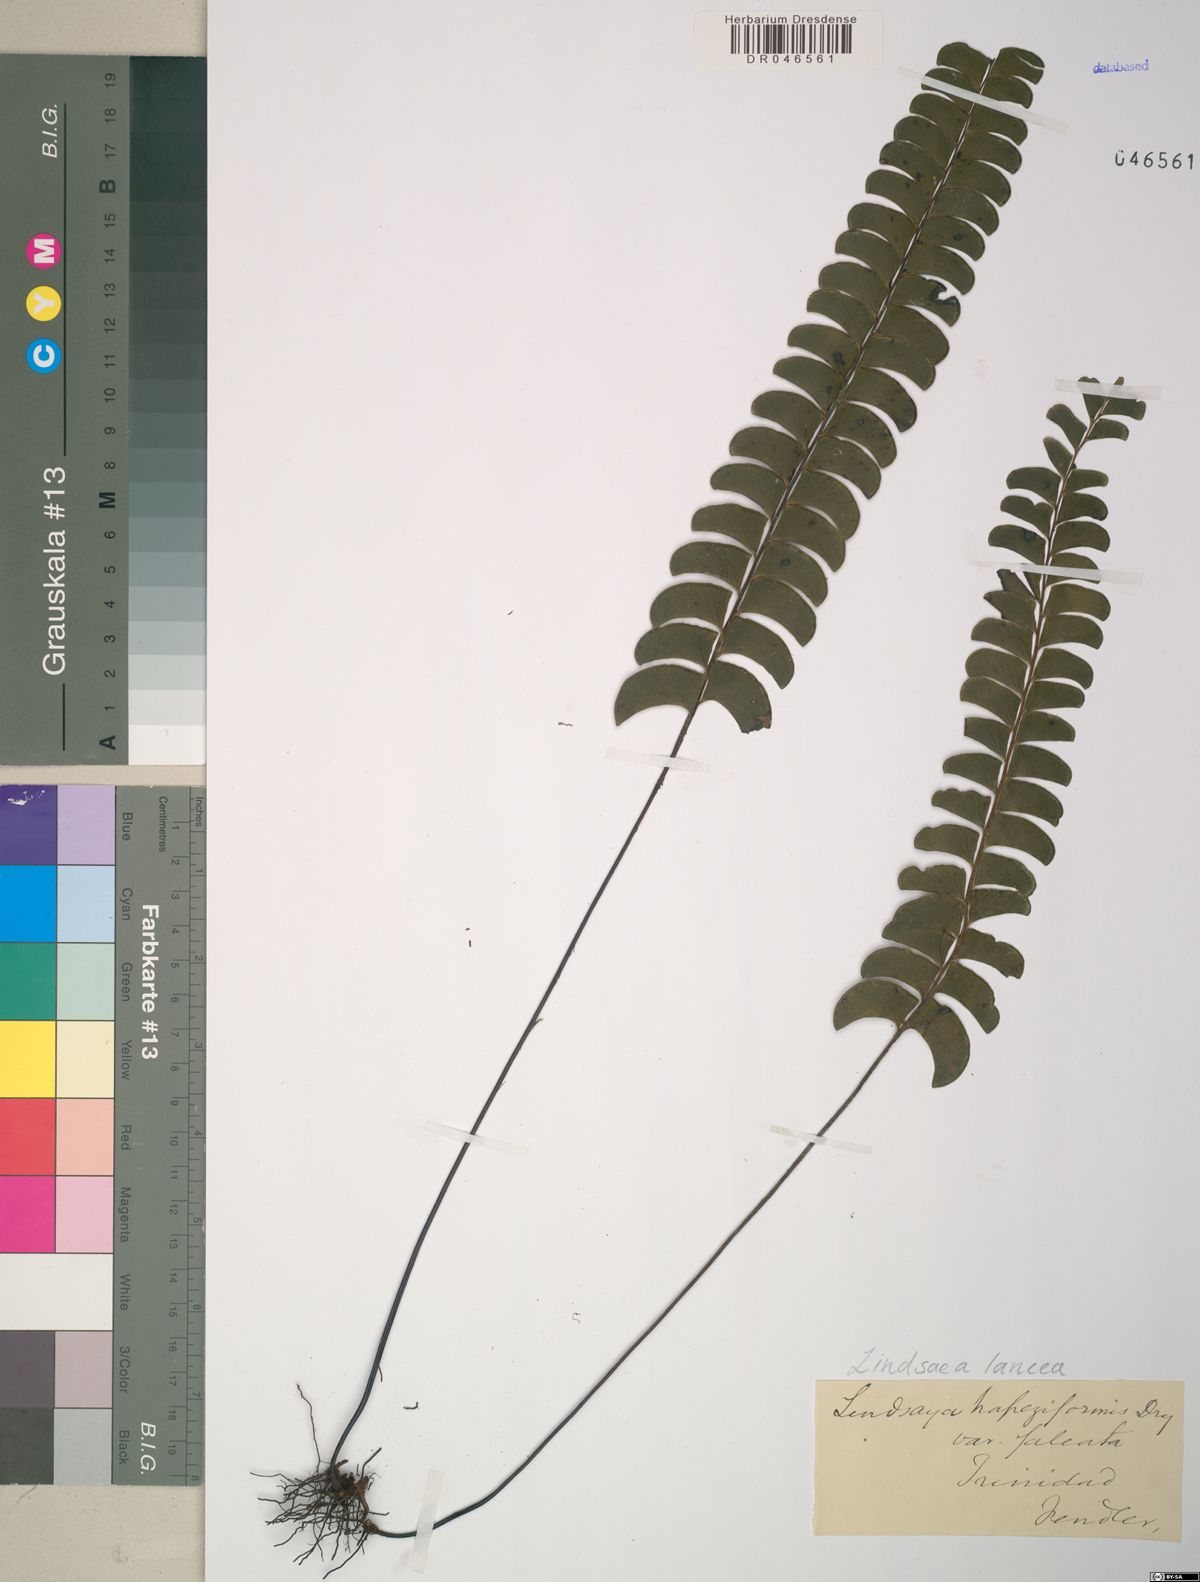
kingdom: Plantae
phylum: Tracheophyta
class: Polypodiopsida
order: Polypodiales
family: Lindsaeaceae
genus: Lindsaea
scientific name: Lindsaea lancea
